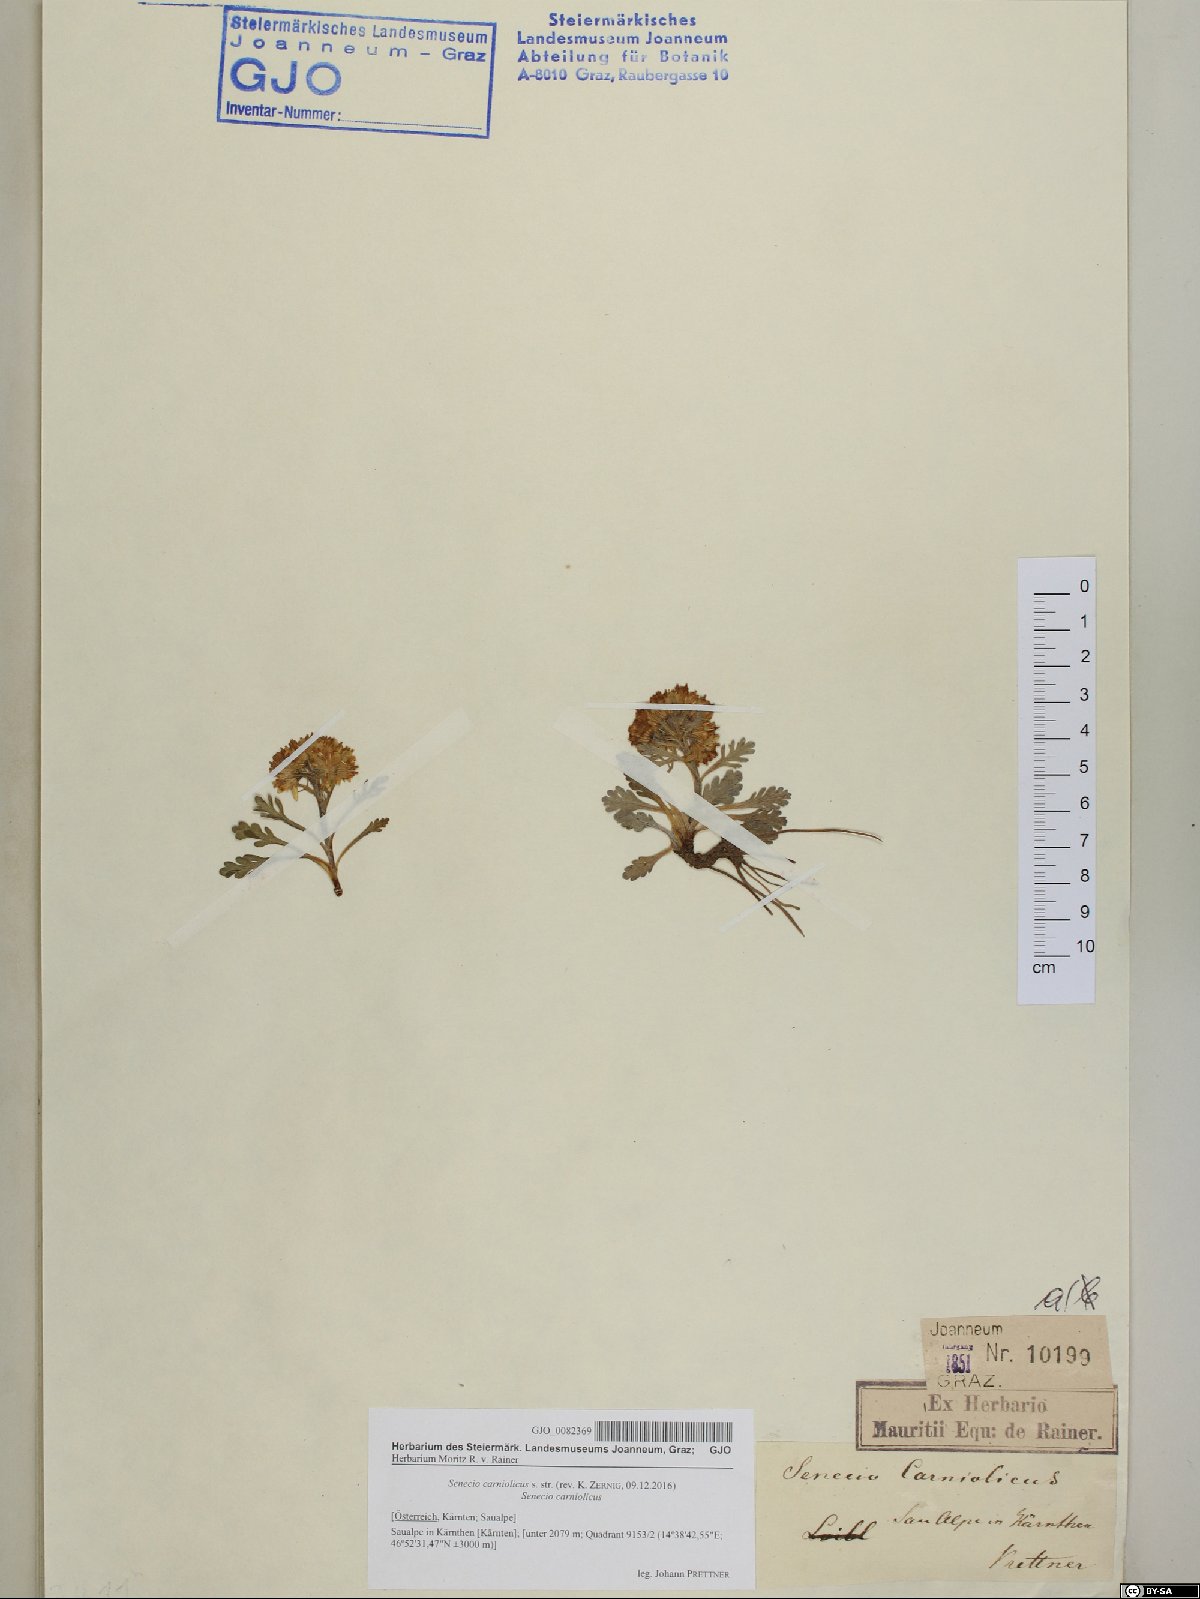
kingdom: Plantae
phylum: Tracheophyta
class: Magnoliopsida
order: Asterales
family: Asteraceae
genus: Jacobaea
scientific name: Jacobaea carniolica
